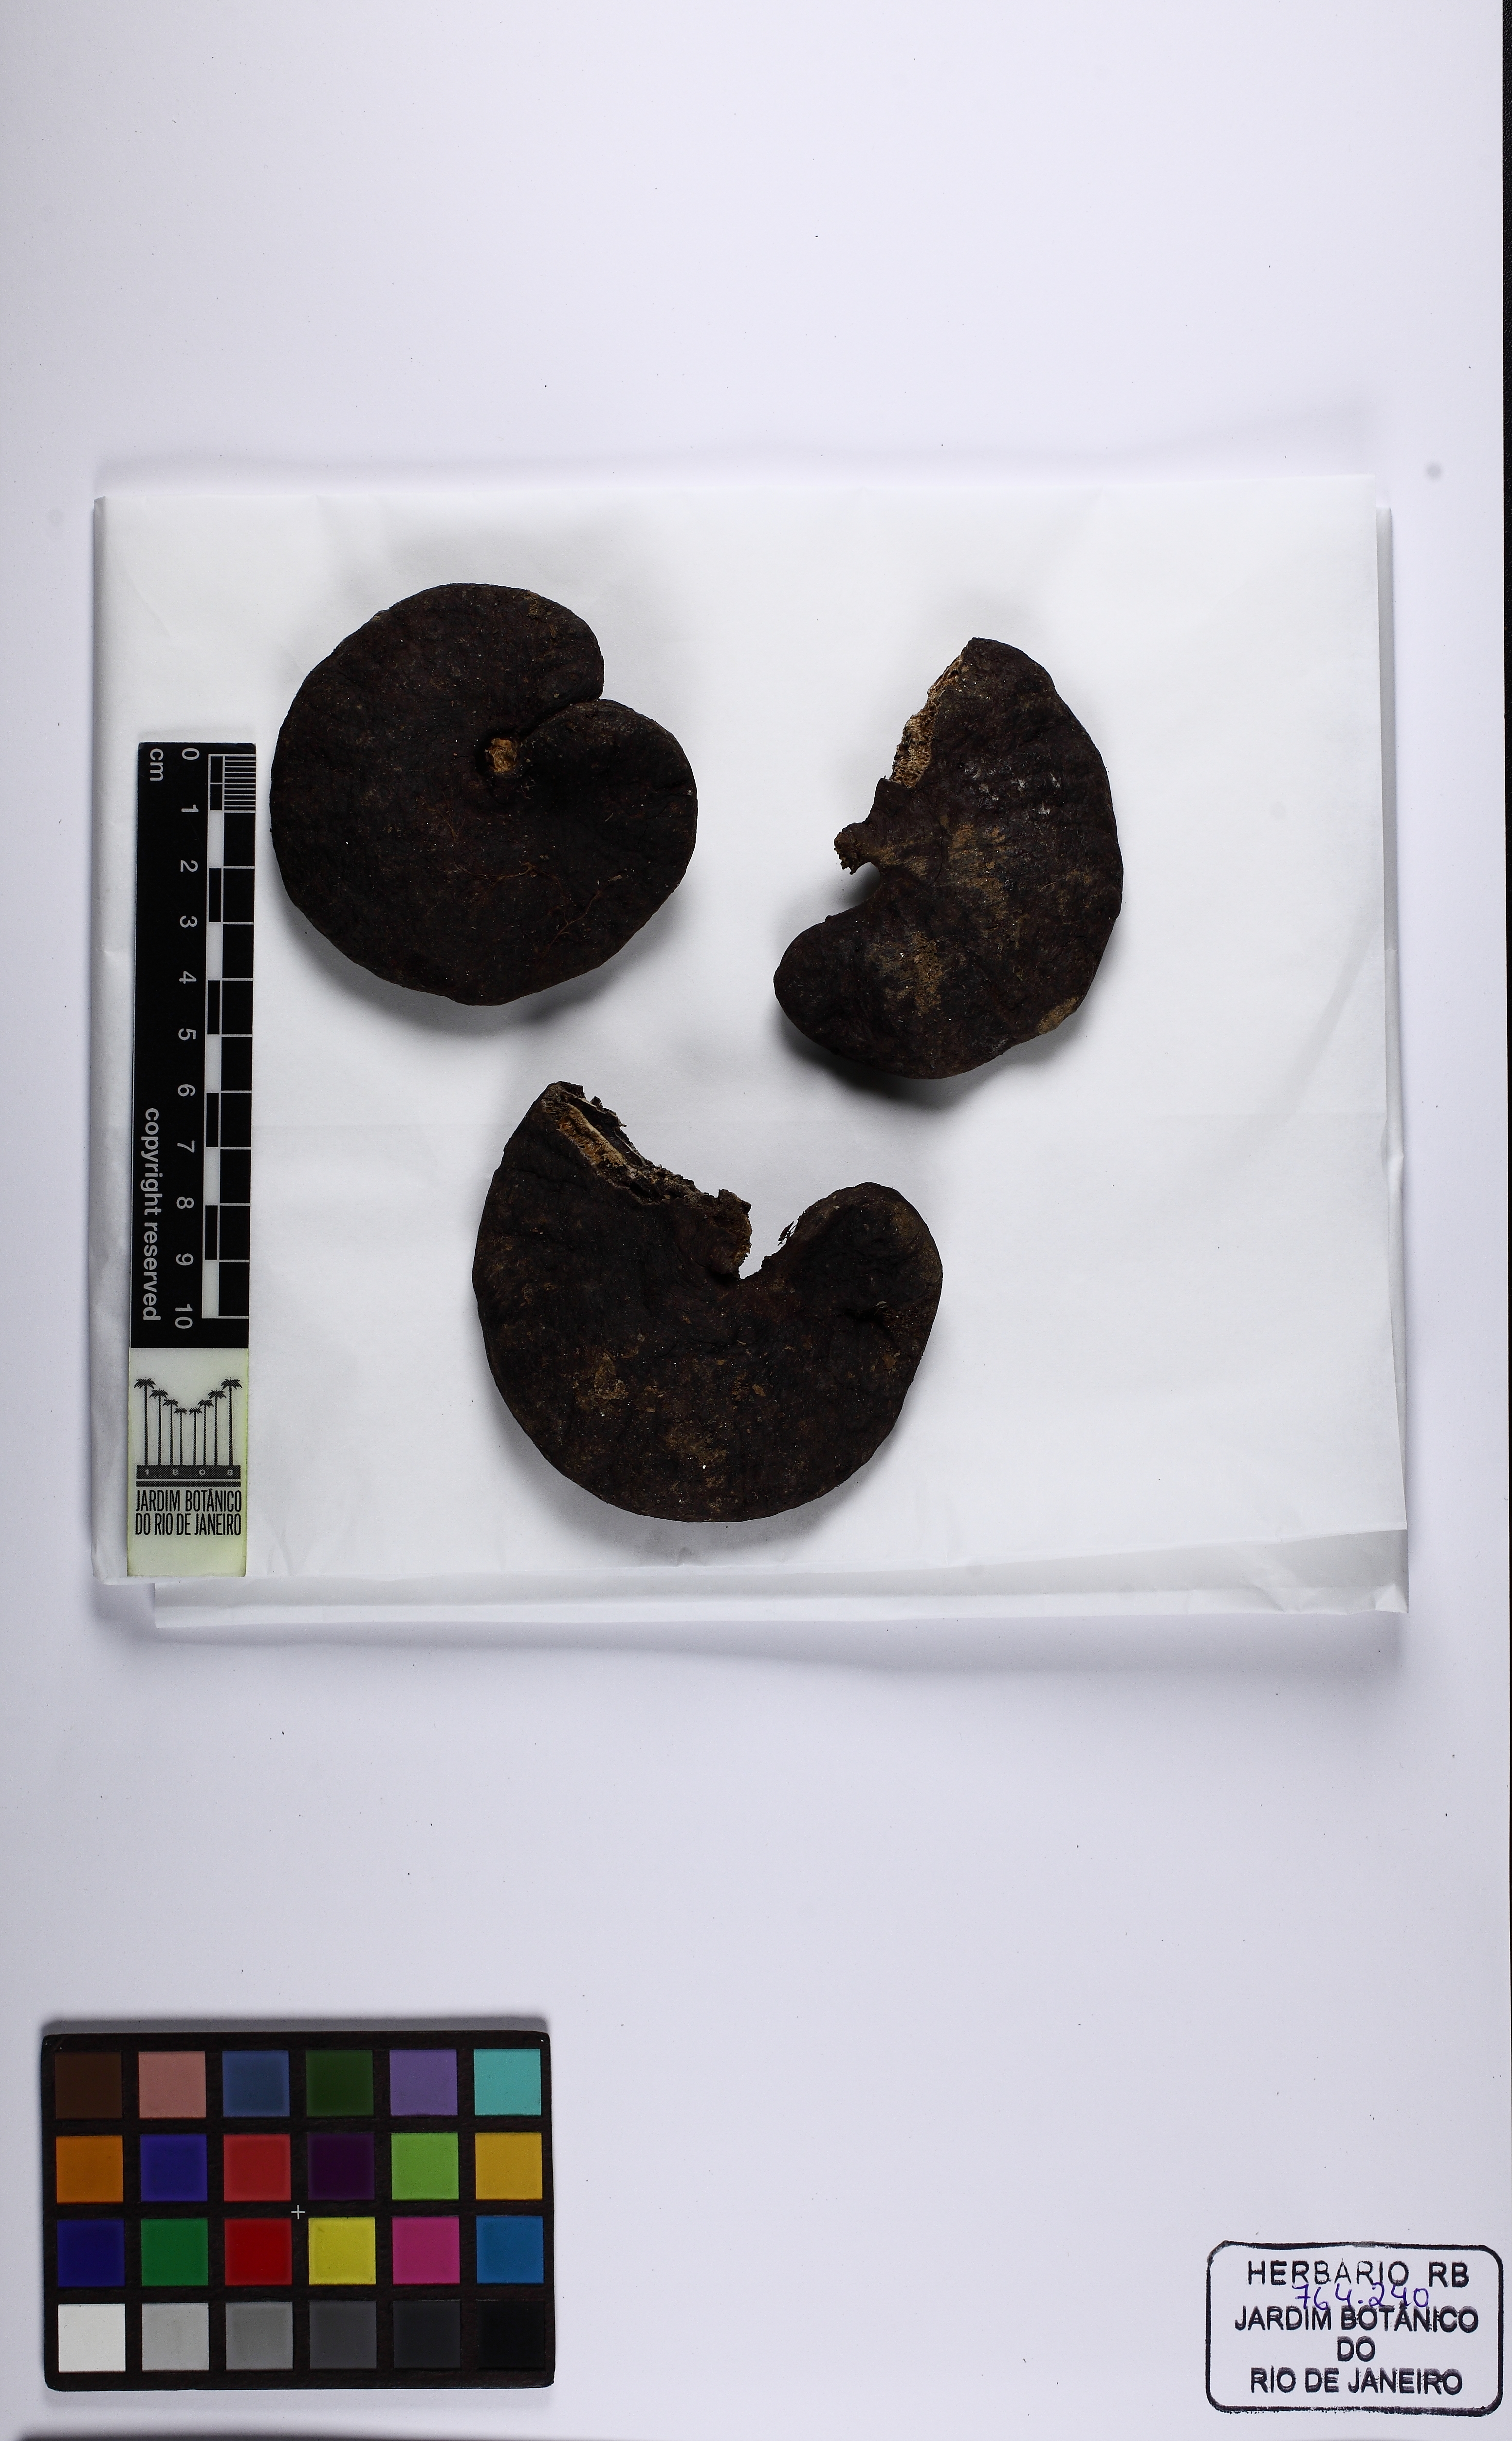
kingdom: Plantae
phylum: Tracheophyta
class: Magnoliopsida
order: Fabales
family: Fabaceae
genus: Enterolobium
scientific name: Enterolobium glaziovii
